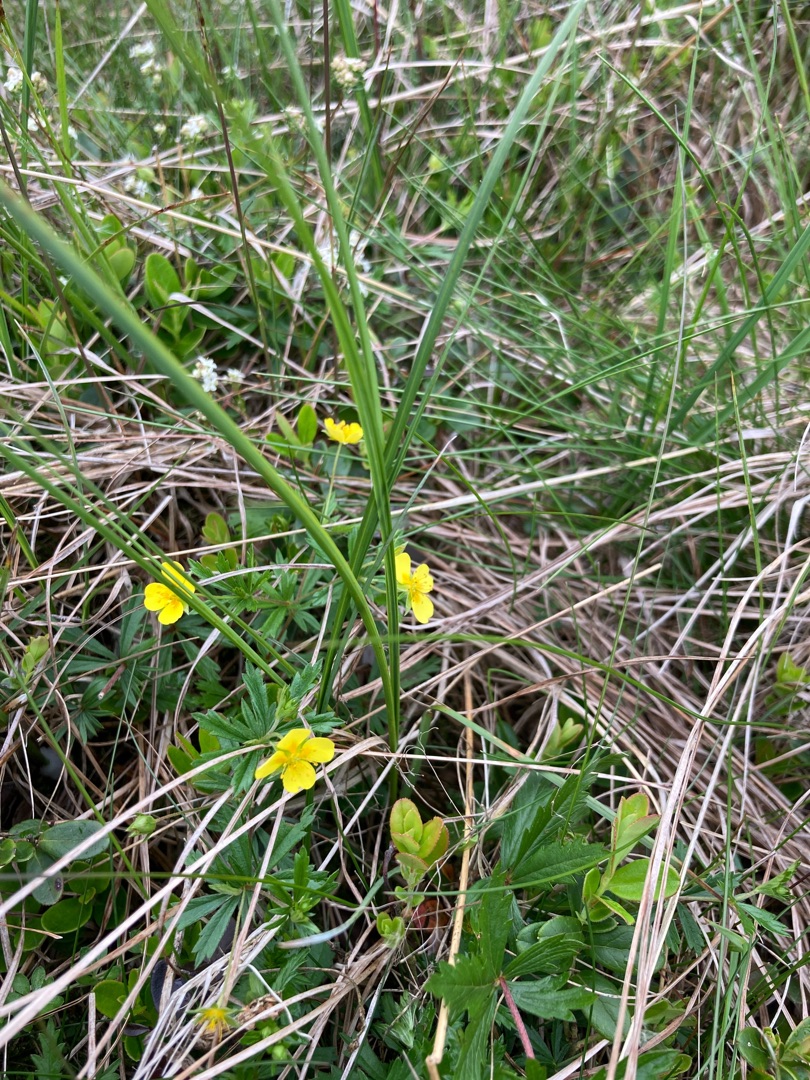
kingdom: Plantae
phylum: Tracheophyta
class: Magnoliopsida
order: Rosales
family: Rosaceae
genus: Potentilla
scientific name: Potentilla erecta
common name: Tormentil
